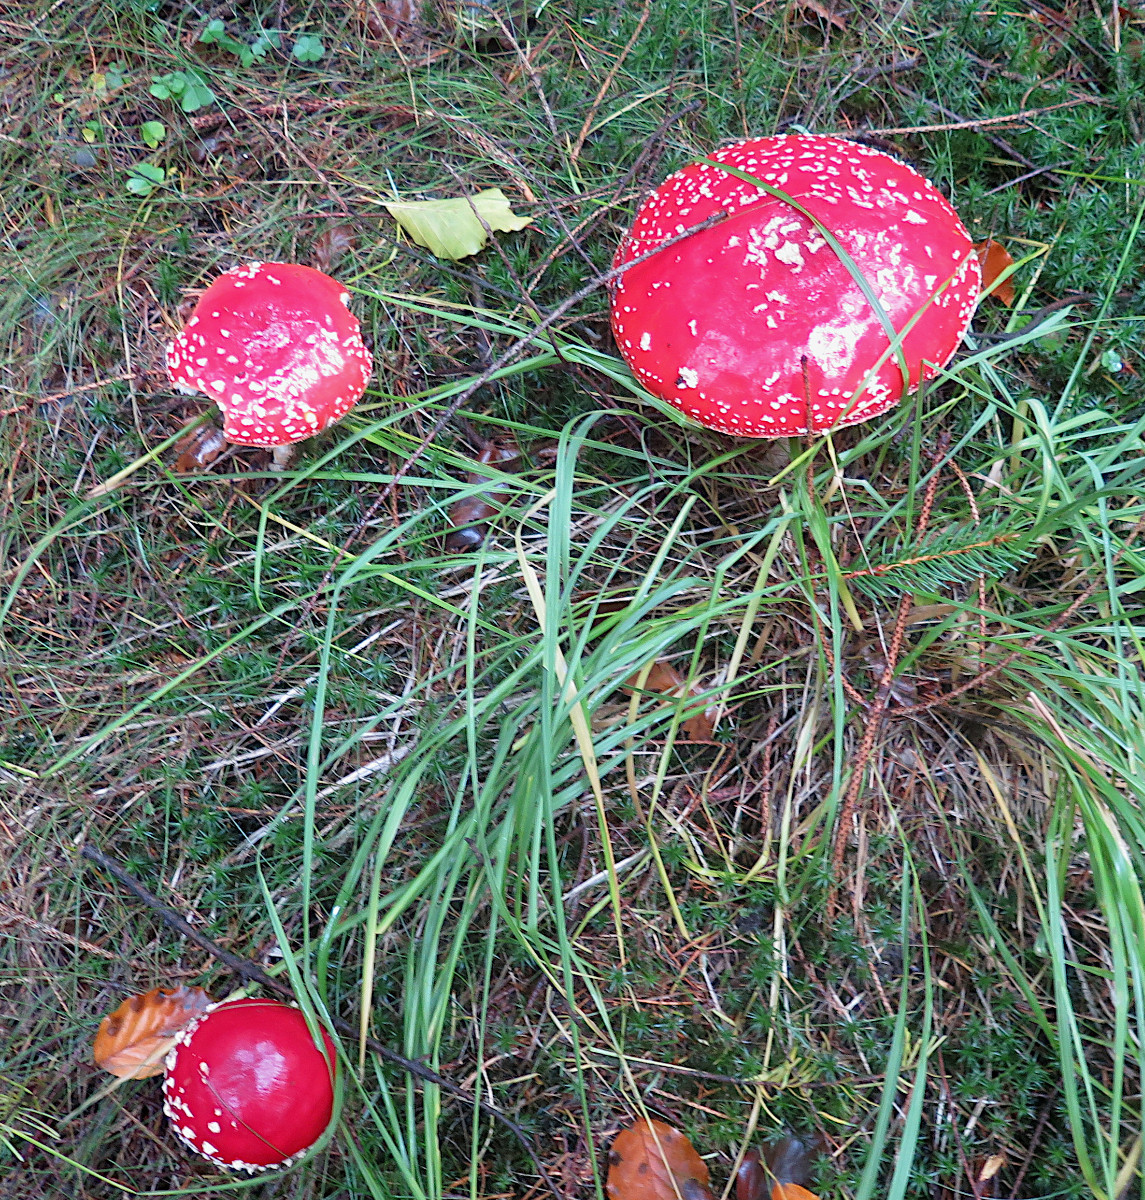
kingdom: Fungi
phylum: Basidiomycota
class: Agaricomycetes
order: Agaricales
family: Amanitaceae
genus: Amanita
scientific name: Amanita muscaria
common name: rød fluesvamp
